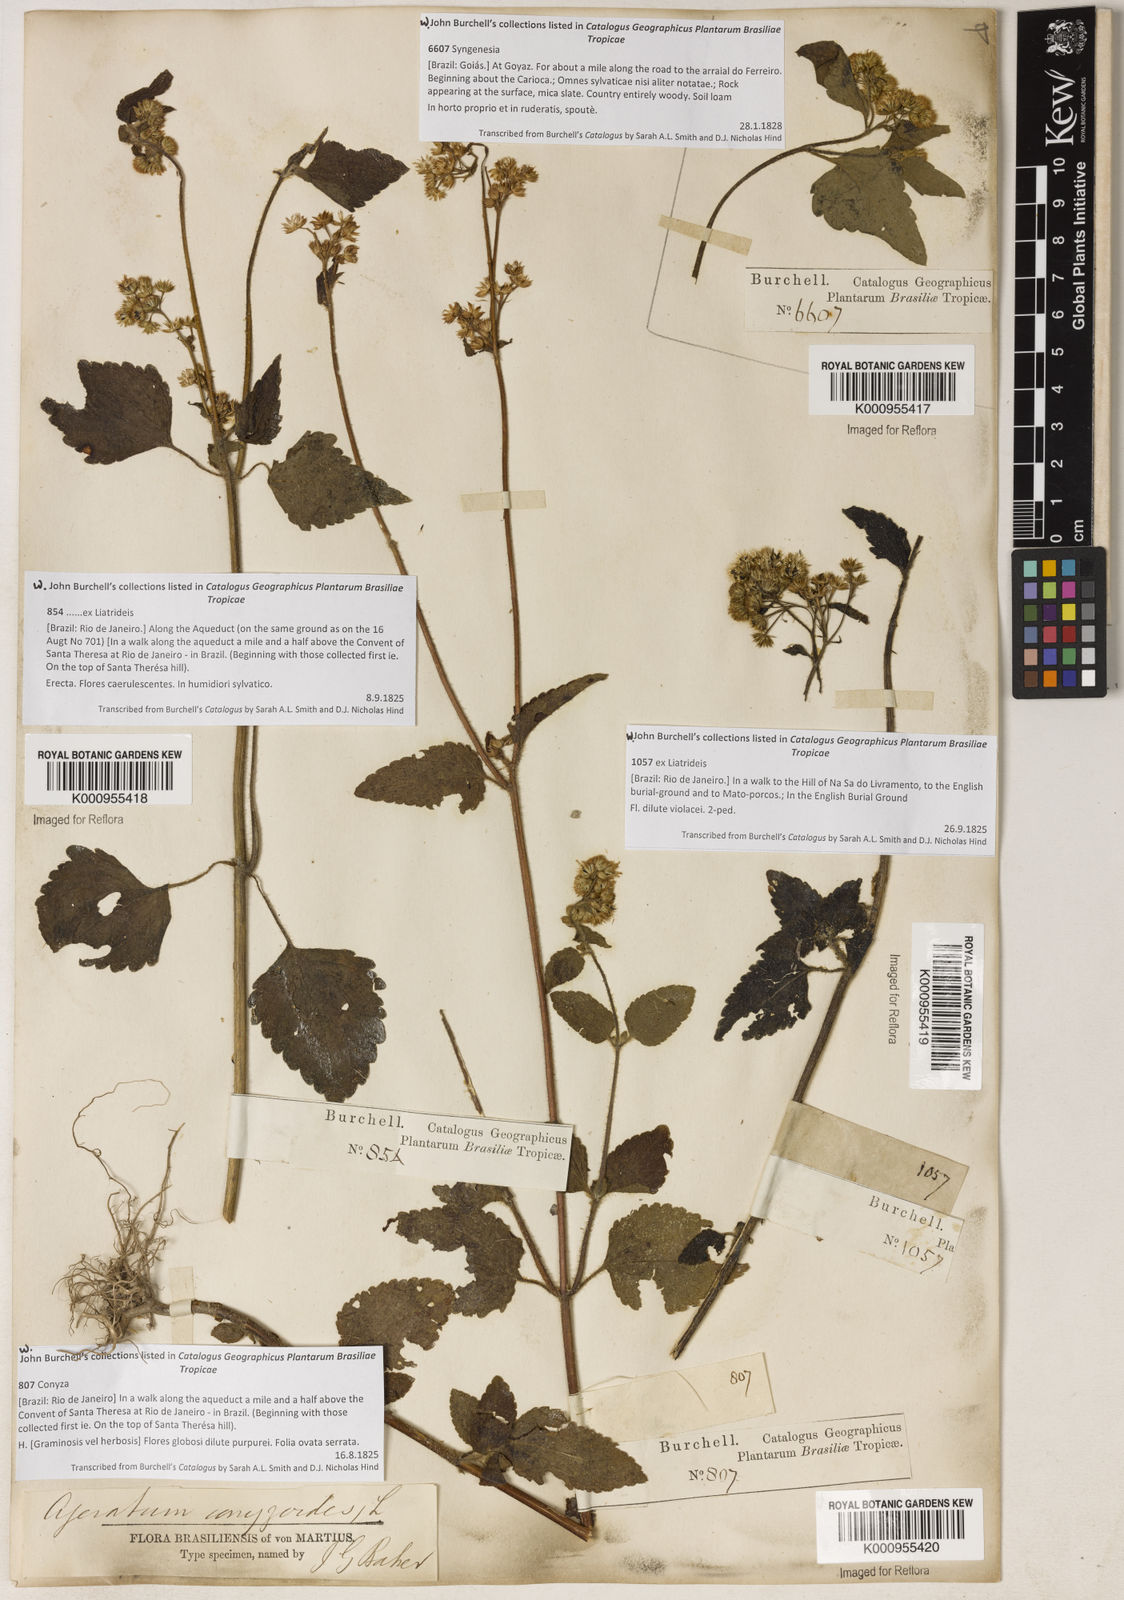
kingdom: Plantae
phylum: Tracheophyta
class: Magnoliopsida
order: Asterales
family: Asteraceae
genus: Ageratum
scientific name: Ageratum conyzoides
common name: Tropical whiteweed
